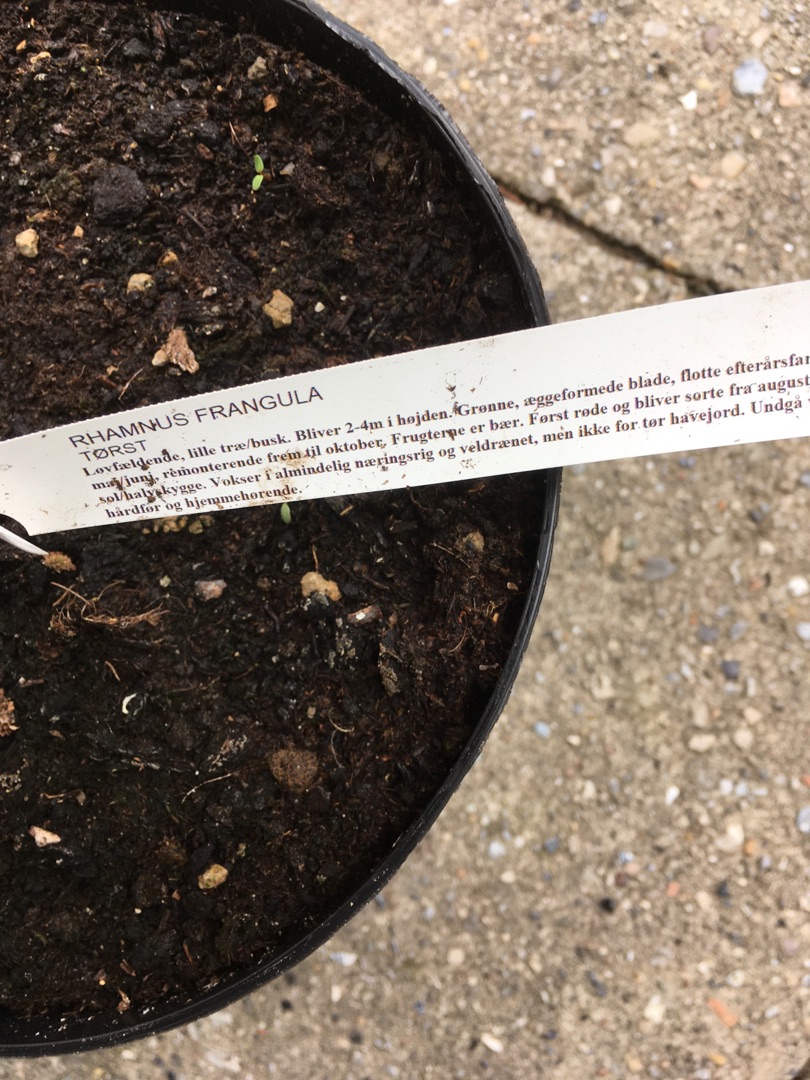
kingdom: Plantae
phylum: Tracheophyta
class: Magnoliopsida
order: Rosales
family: Rhamnaceae
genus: Frangula
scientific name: Frangula alnus
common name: Tørst
